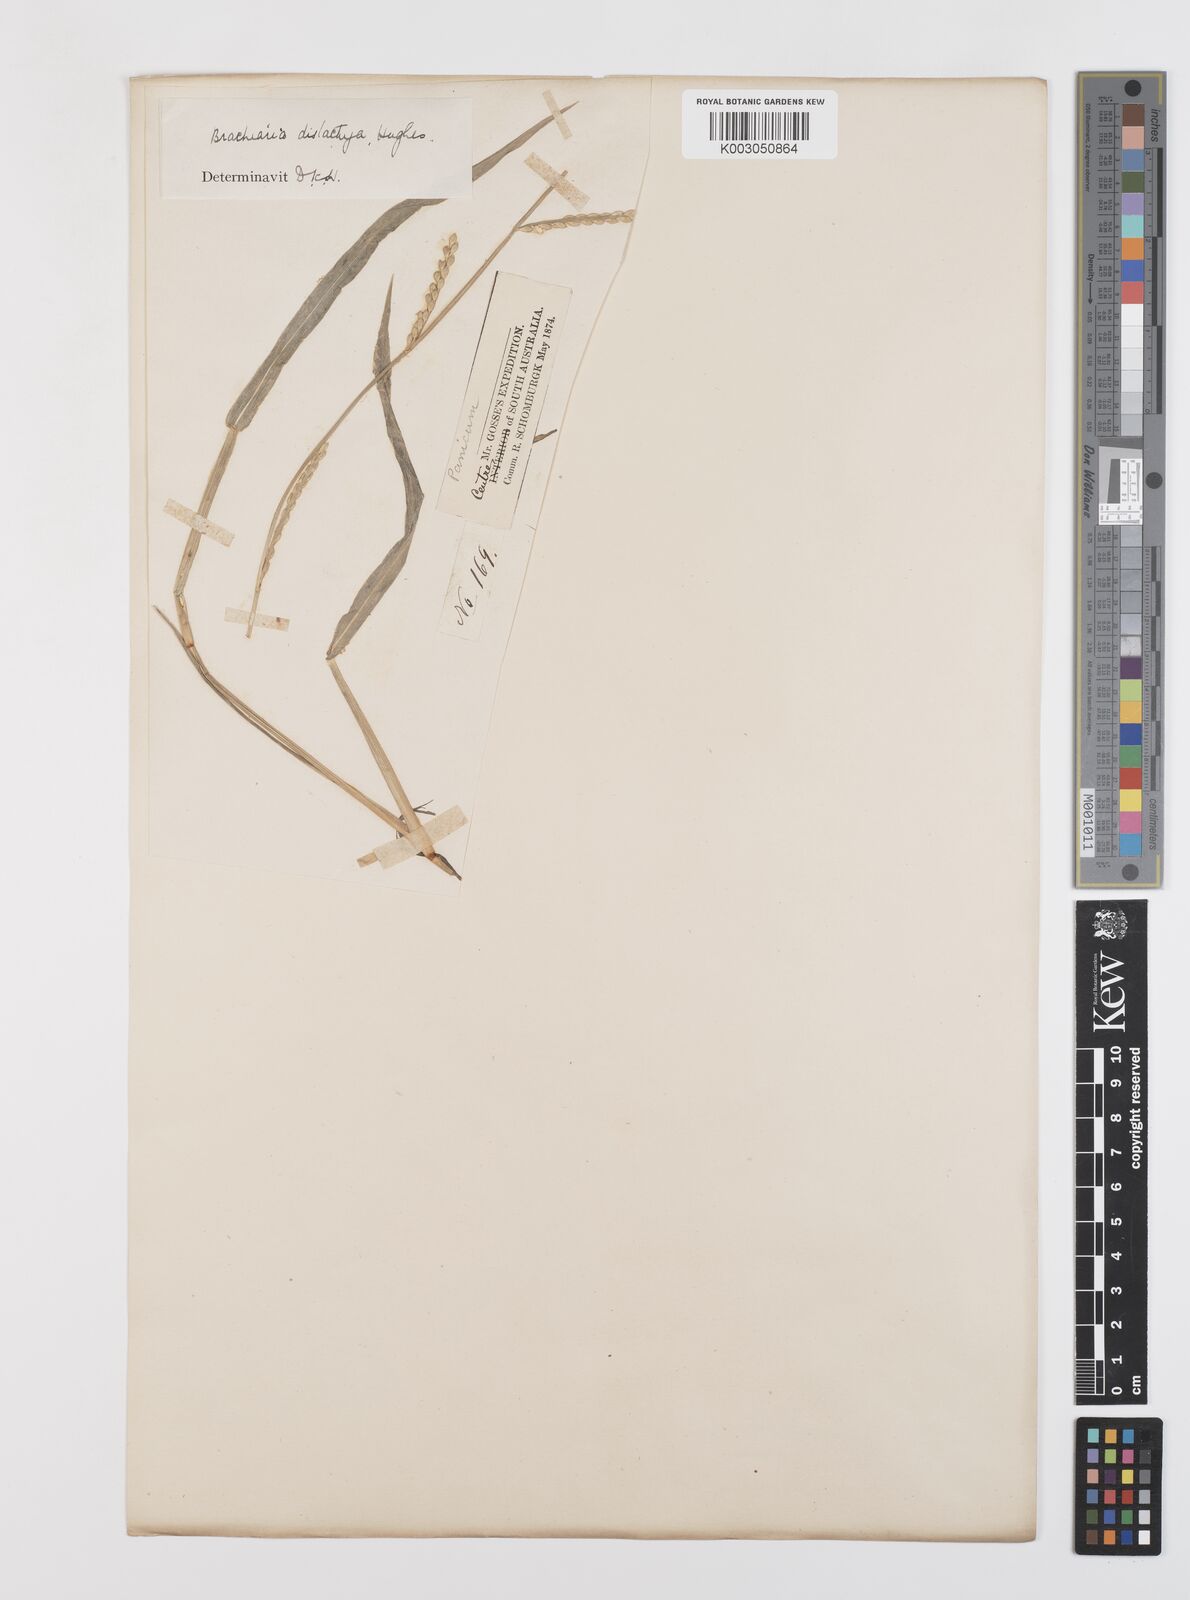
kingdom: Plantae
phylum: Tracheophyta
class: Liliopsida
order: Poales
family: Poaceae
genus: Urochloa
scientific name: Urochloa subquadripara
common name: Armgrass millet
